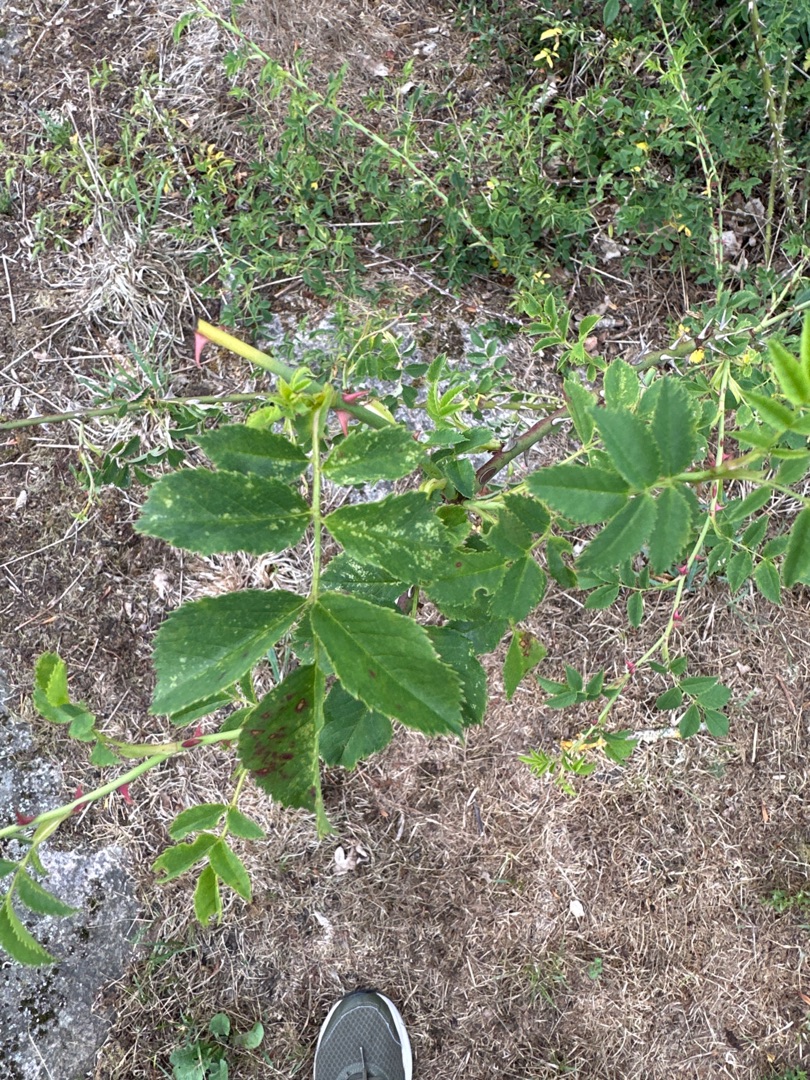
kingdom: Plantae
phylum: Tracheophyta
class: Magnoliopsida
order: Rosales
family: Rosaceae
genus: Rosa
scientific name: Rosa
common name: Roseslægten
